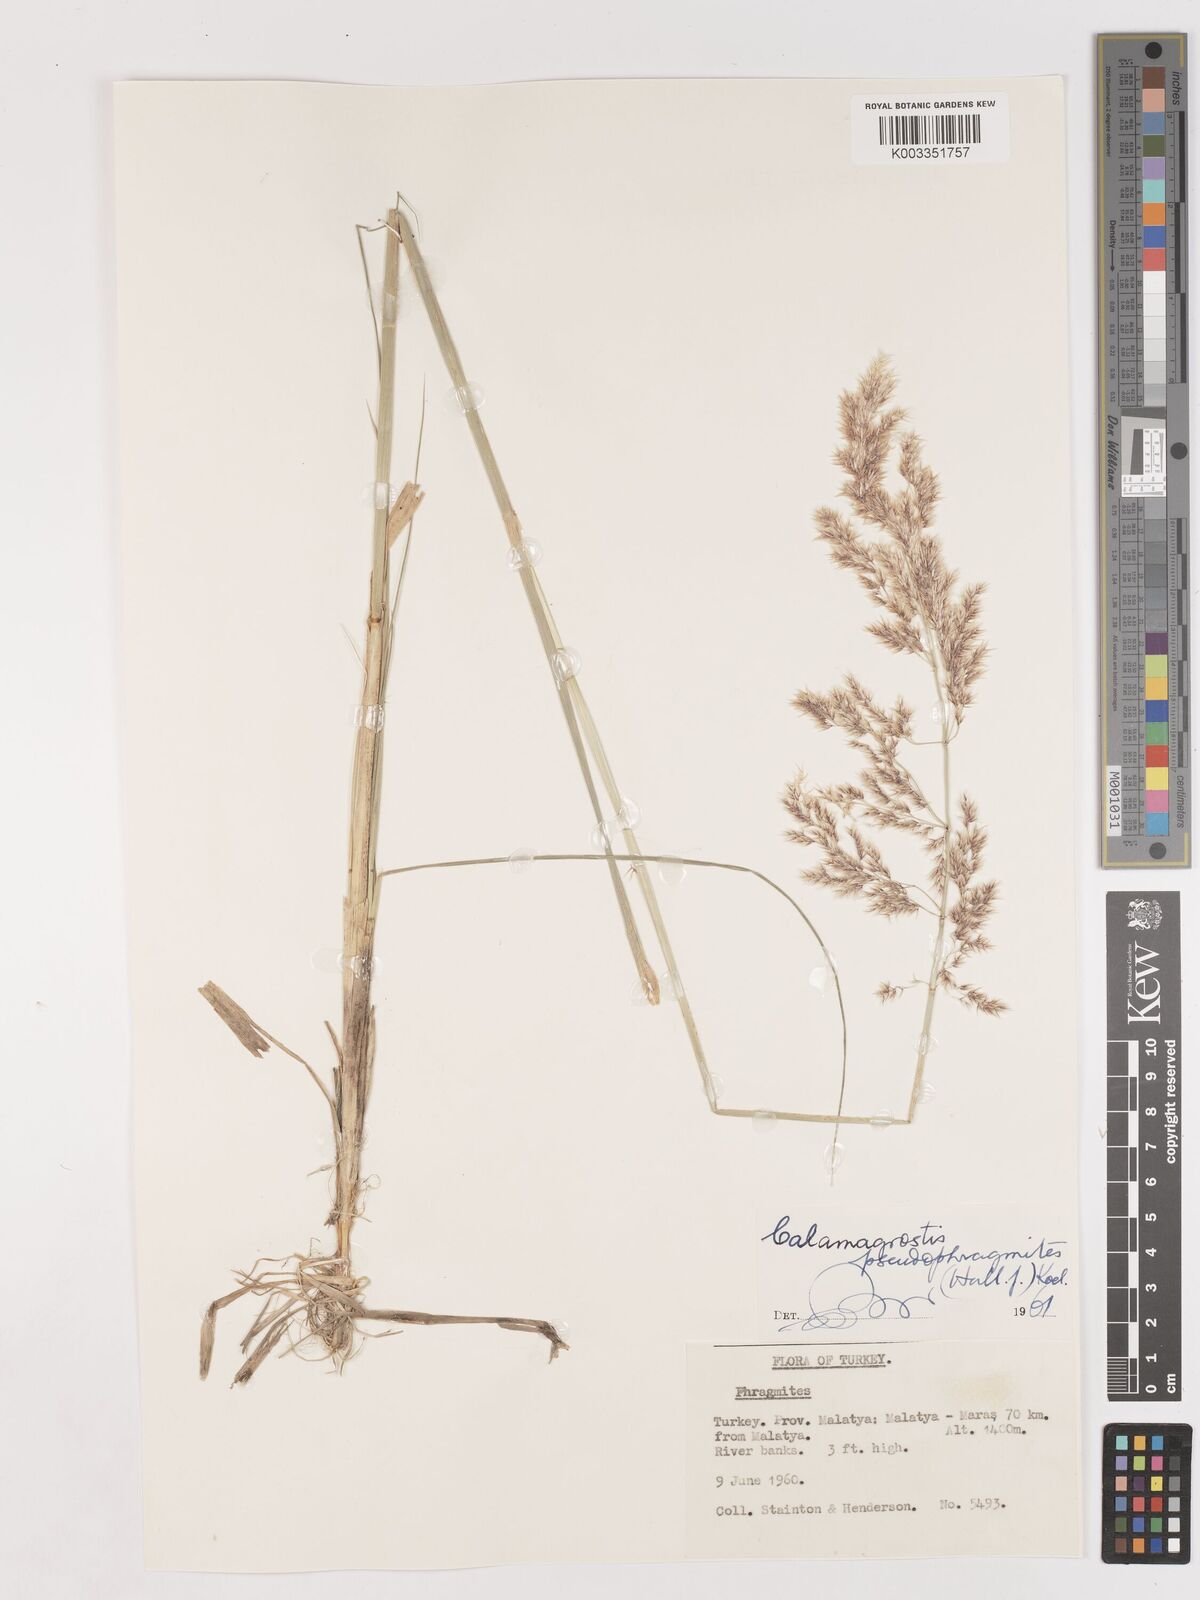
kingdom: Plantae
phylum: Tracheophyta
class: Liliopsida
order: Poales
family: Poaceae
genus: Calamagrostis
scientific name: Calamagrostis pseudophragmites
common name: Coastal small-reed
